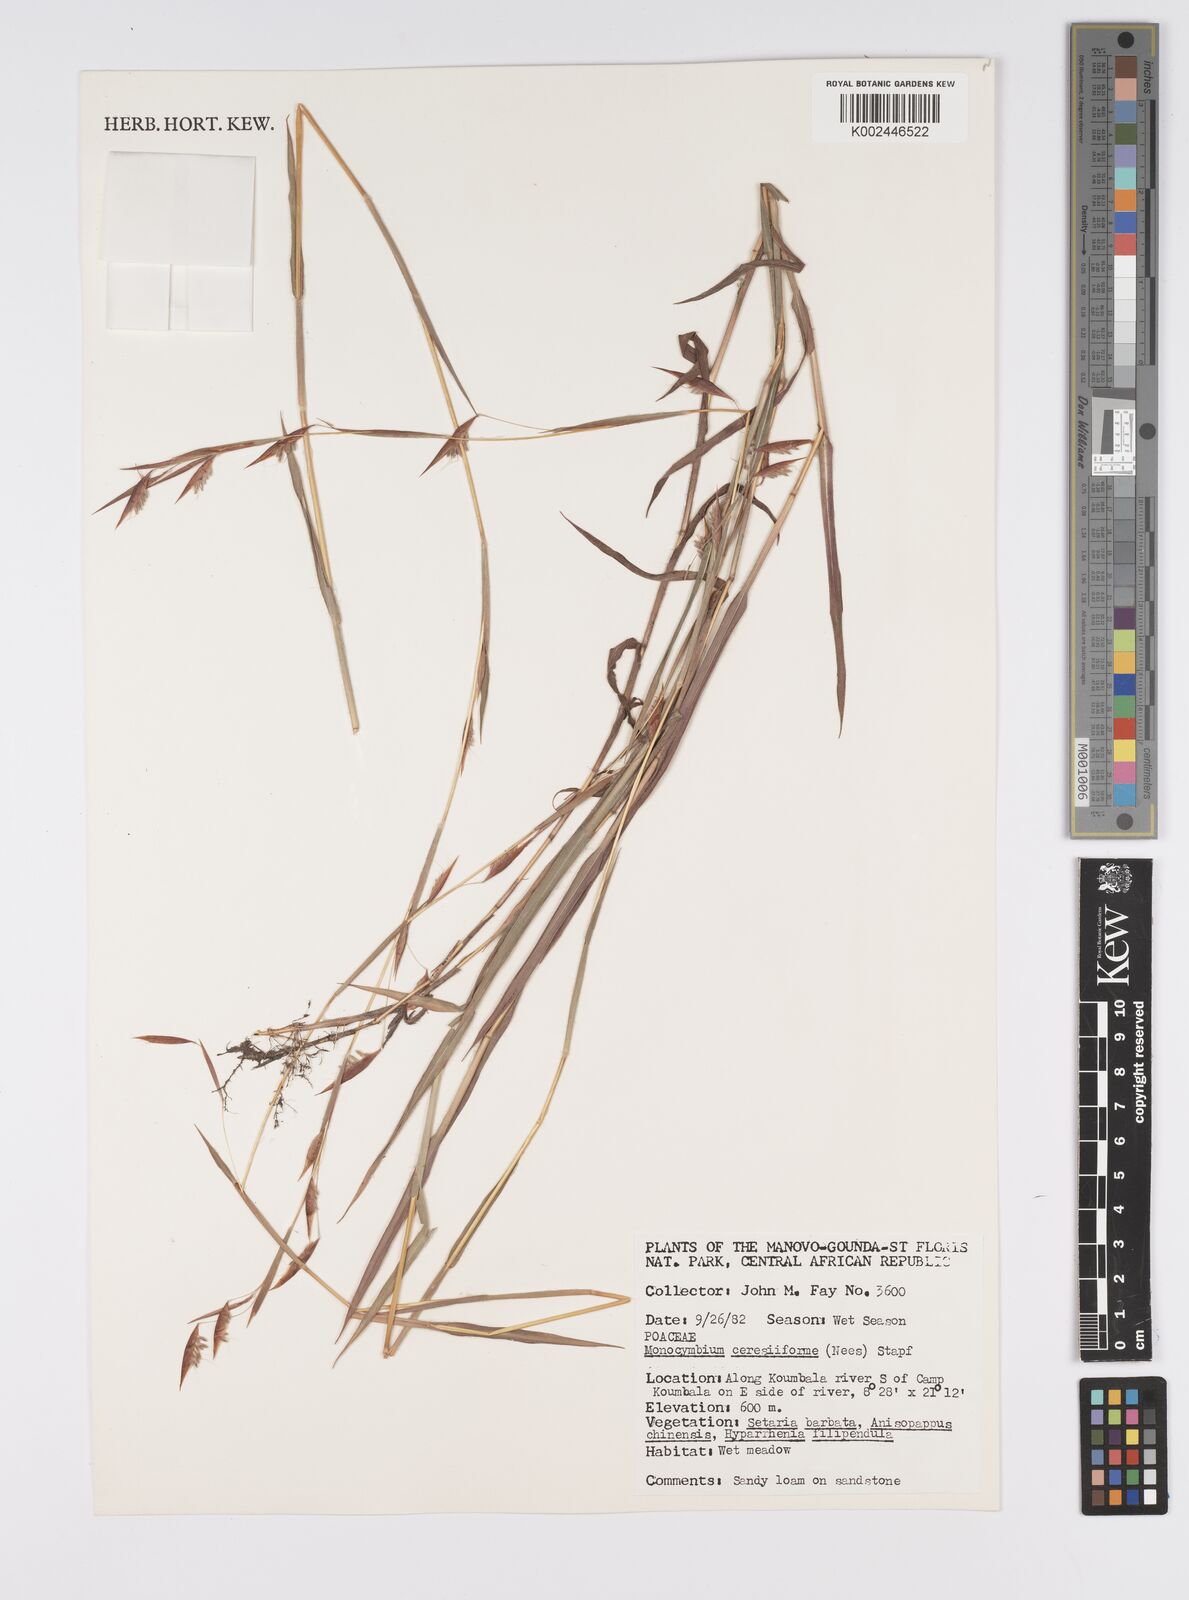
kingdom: Plantae
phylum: Tracheophyta
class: Liliopsida
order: Poales
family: Poaceae
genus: Monocymbium
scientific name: Monocymbium ceresiiforme
